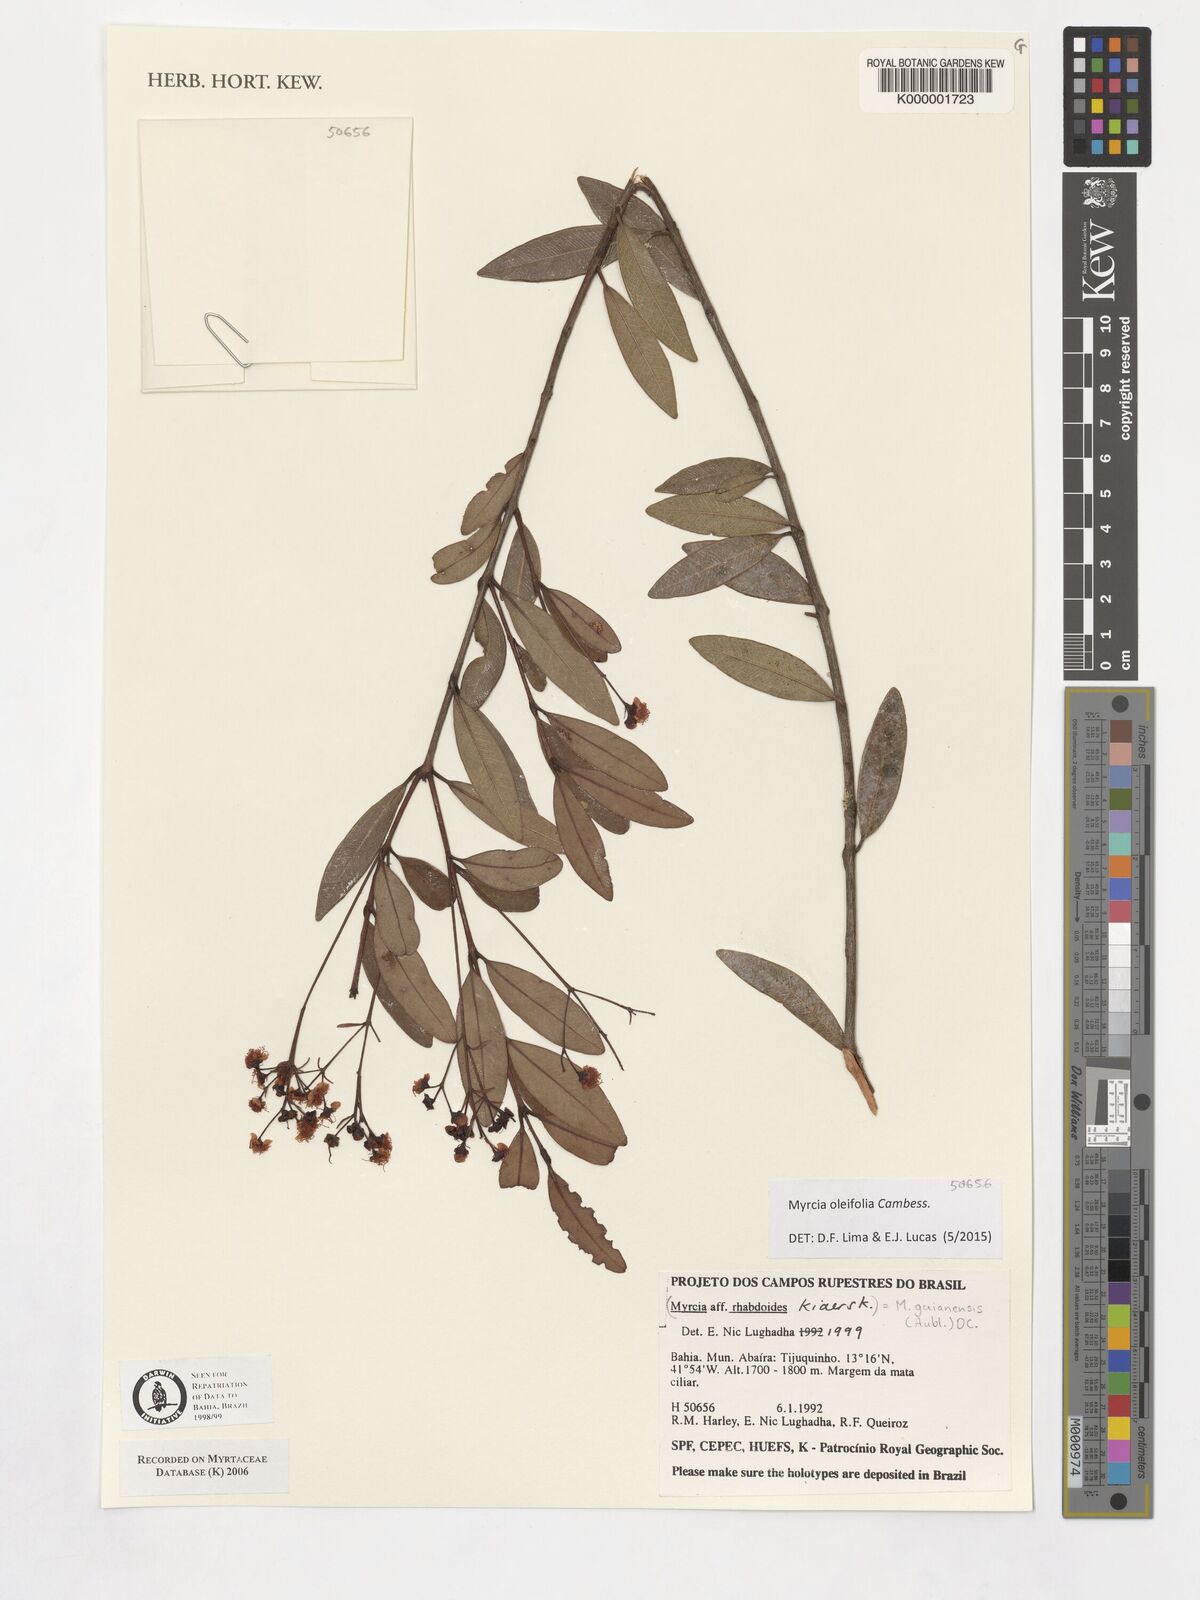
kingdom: Plantae
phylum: Tracheophyta
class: Magnoliopsida
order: Myrtales
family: Myrtaceae
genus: Myrcia
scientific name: Myrcia venulosa
